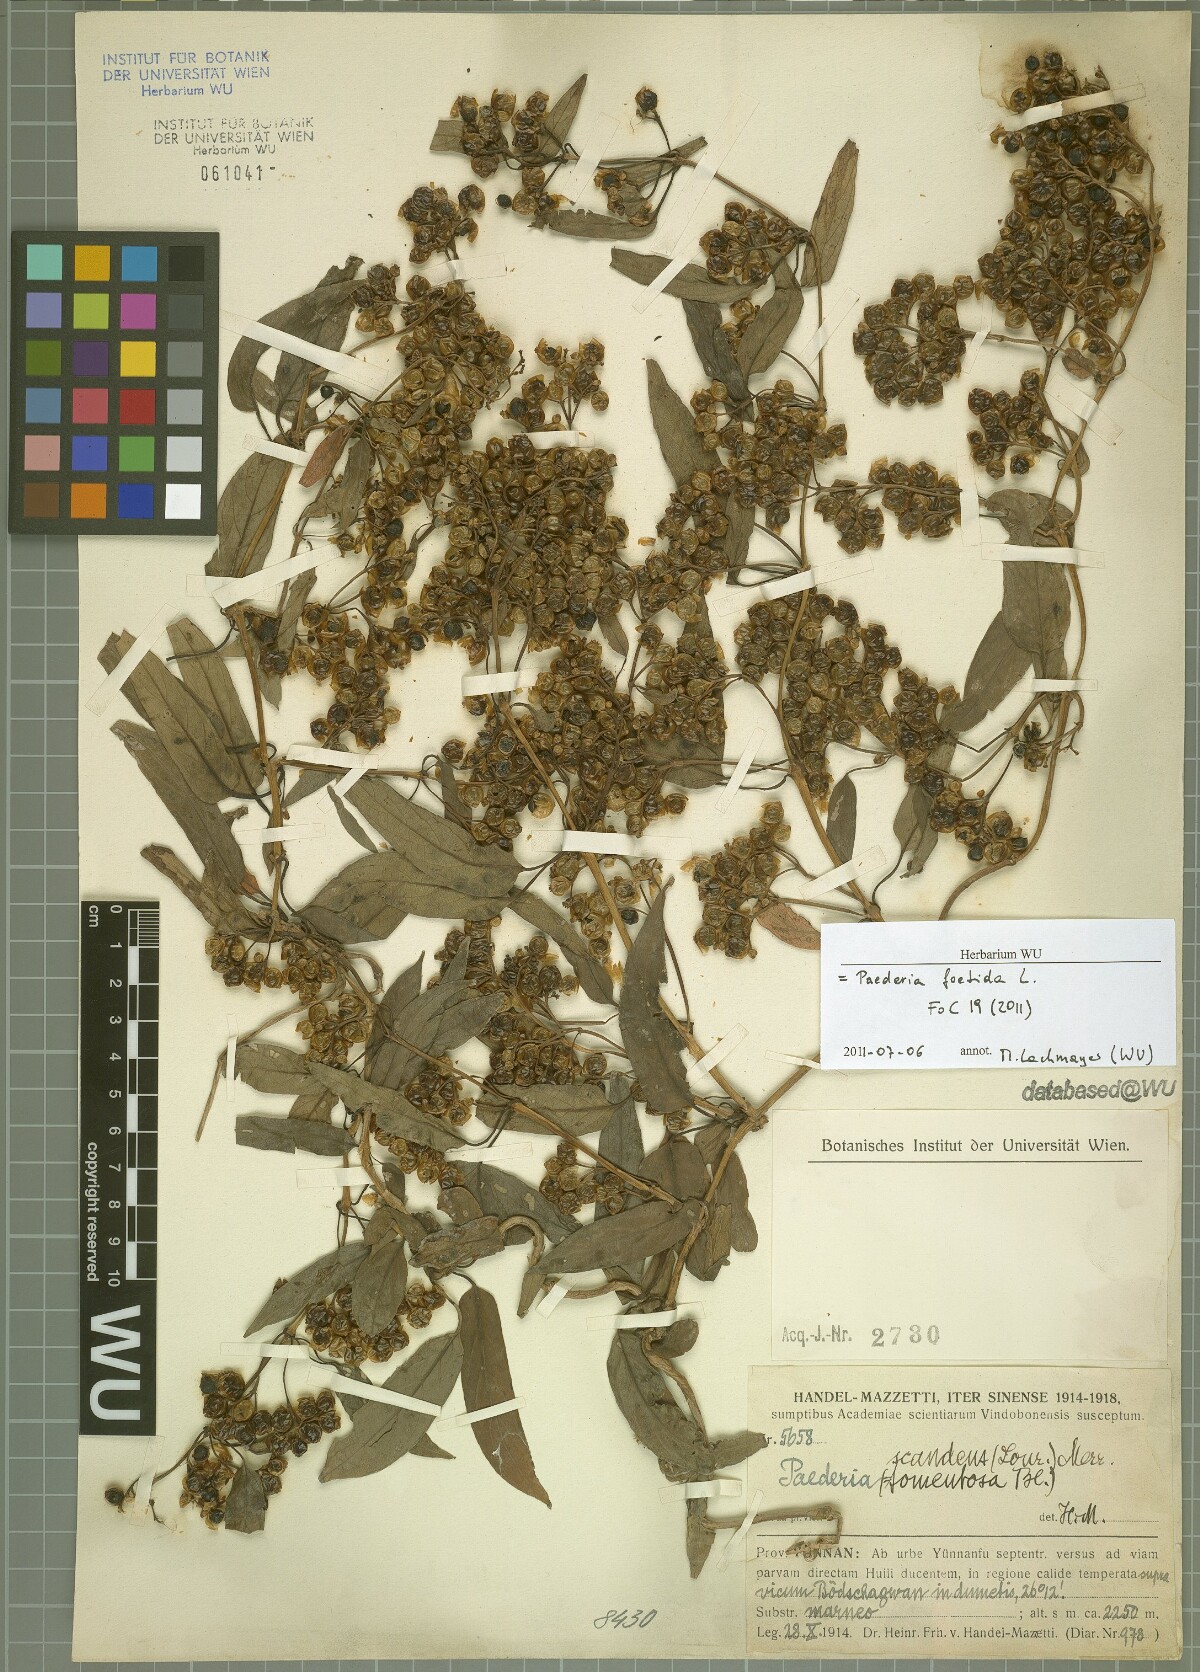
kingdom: Plantae
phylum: Tracheophyta
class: Magnoliopsida
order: Gentianales
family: Rubiaceae
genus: Paederia
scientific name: Paederia foetida
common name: Stinkvine
